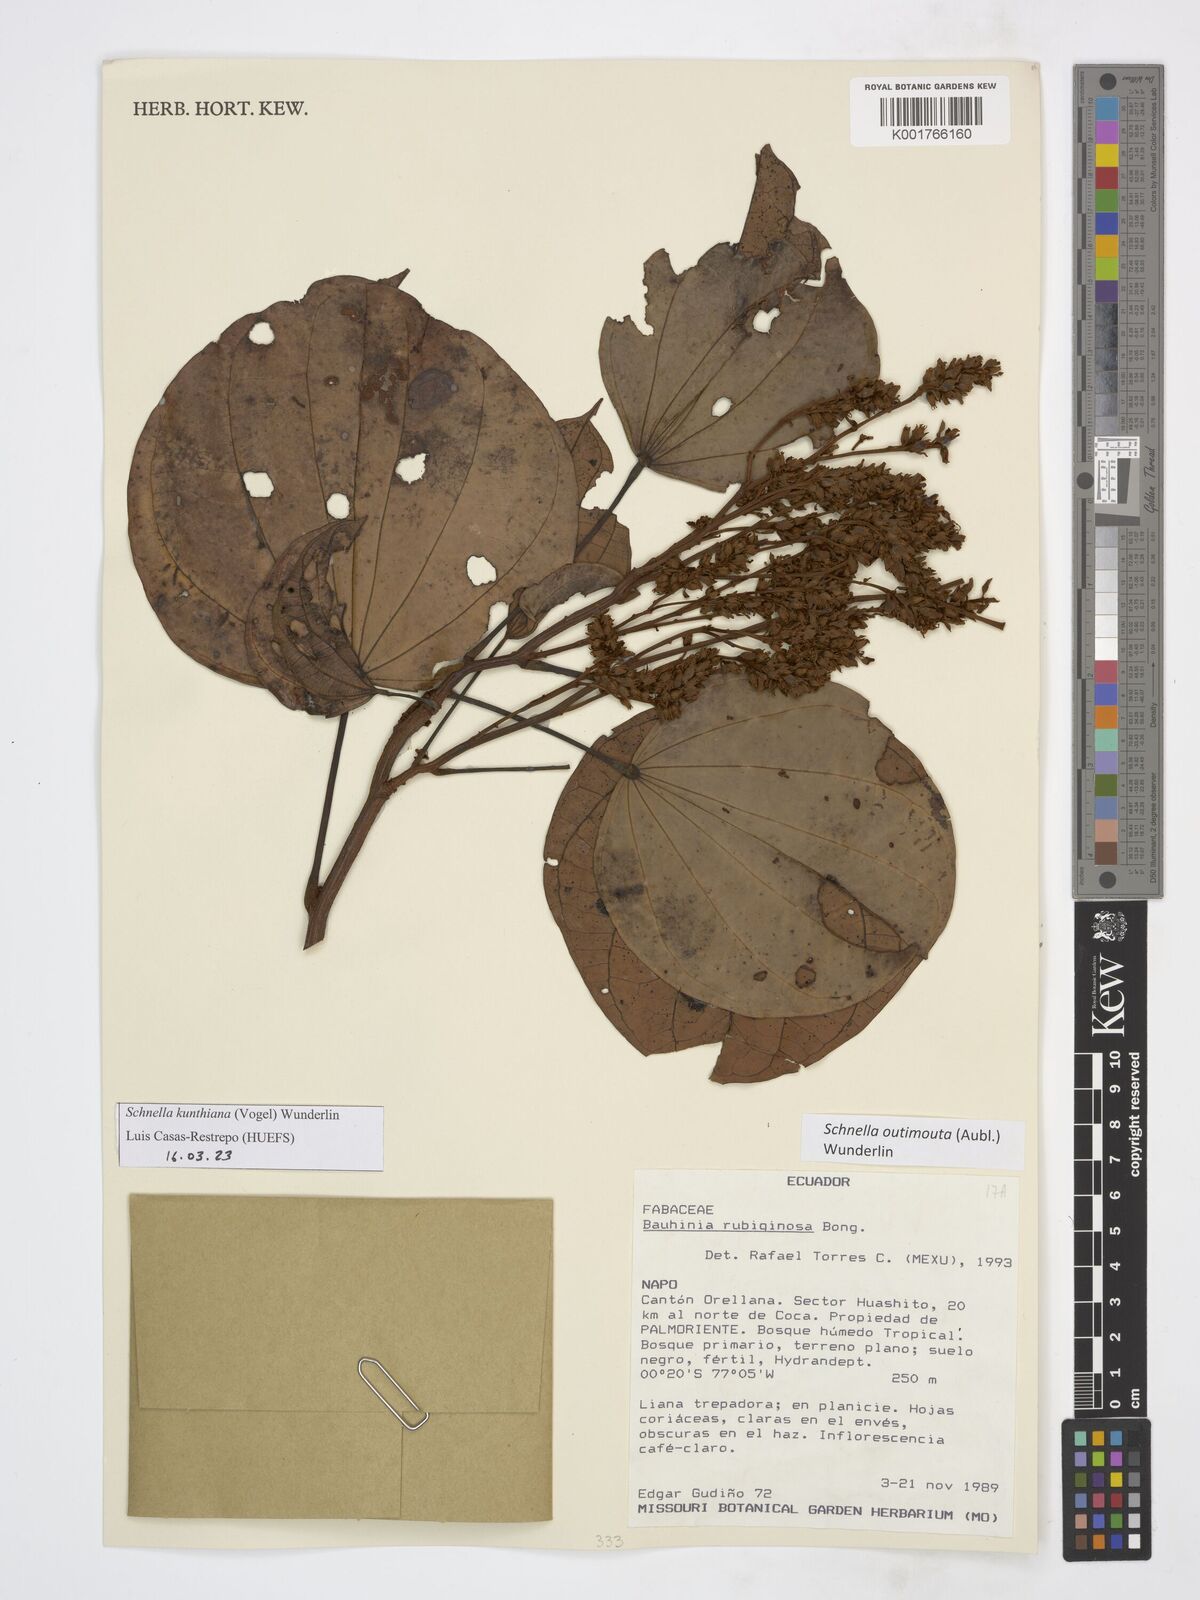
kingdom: Plantae
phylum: Tracheophyta
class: Magnoliopsida
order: Fabales
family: Fabaceae
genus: Schnella
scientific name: Schnella kunthiana
